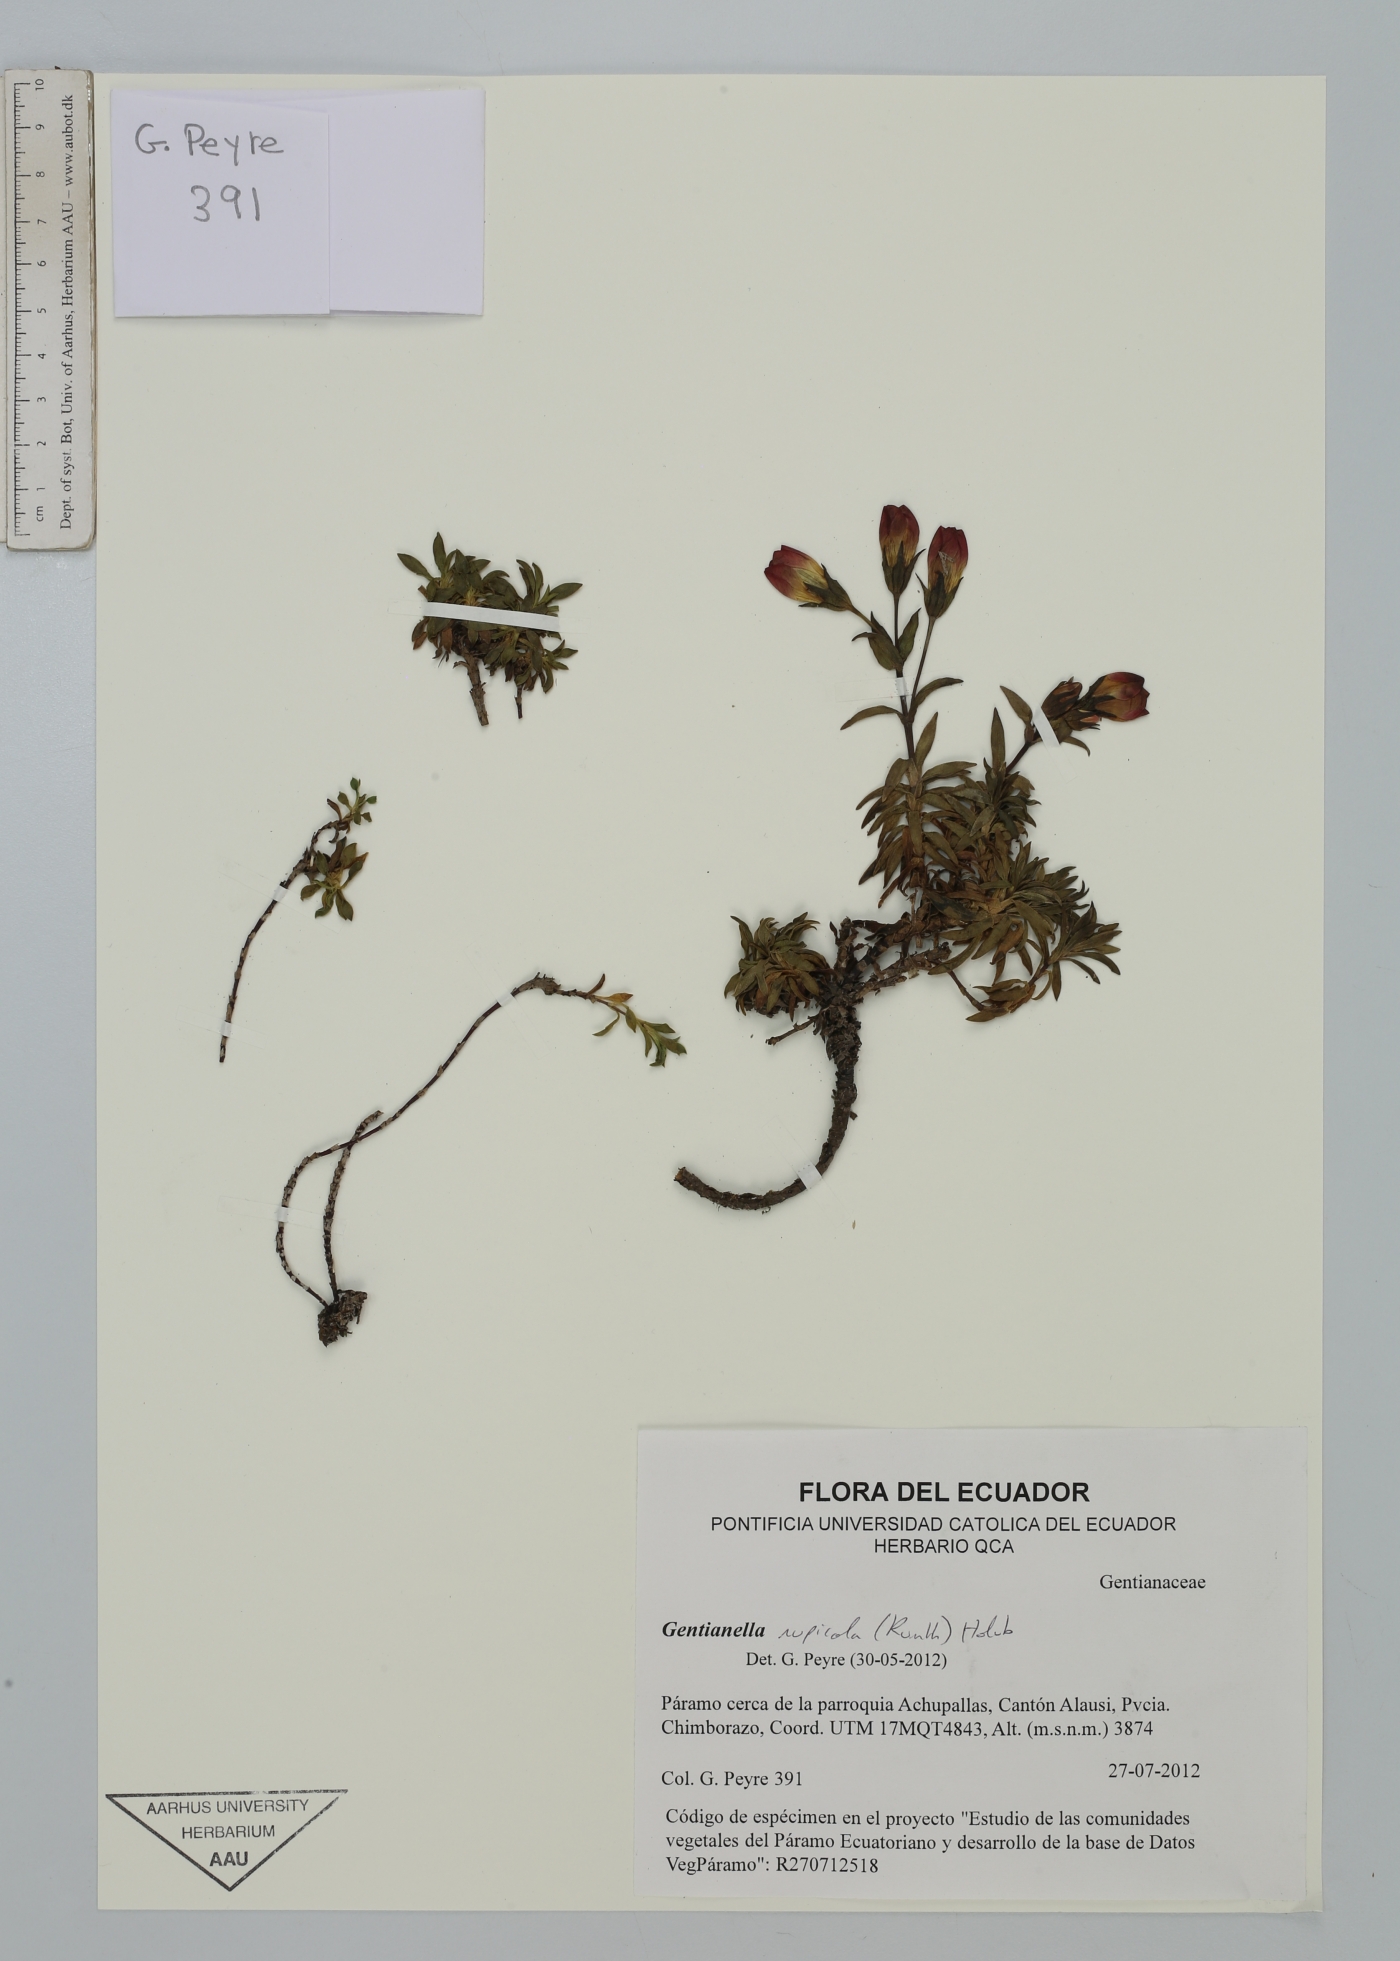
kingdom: Plantae
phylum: Tracheophyta
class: Magnoliopsida
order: Gentianales
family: Gentianaceae
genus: Gentianella
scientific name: Gentianella rupicola
